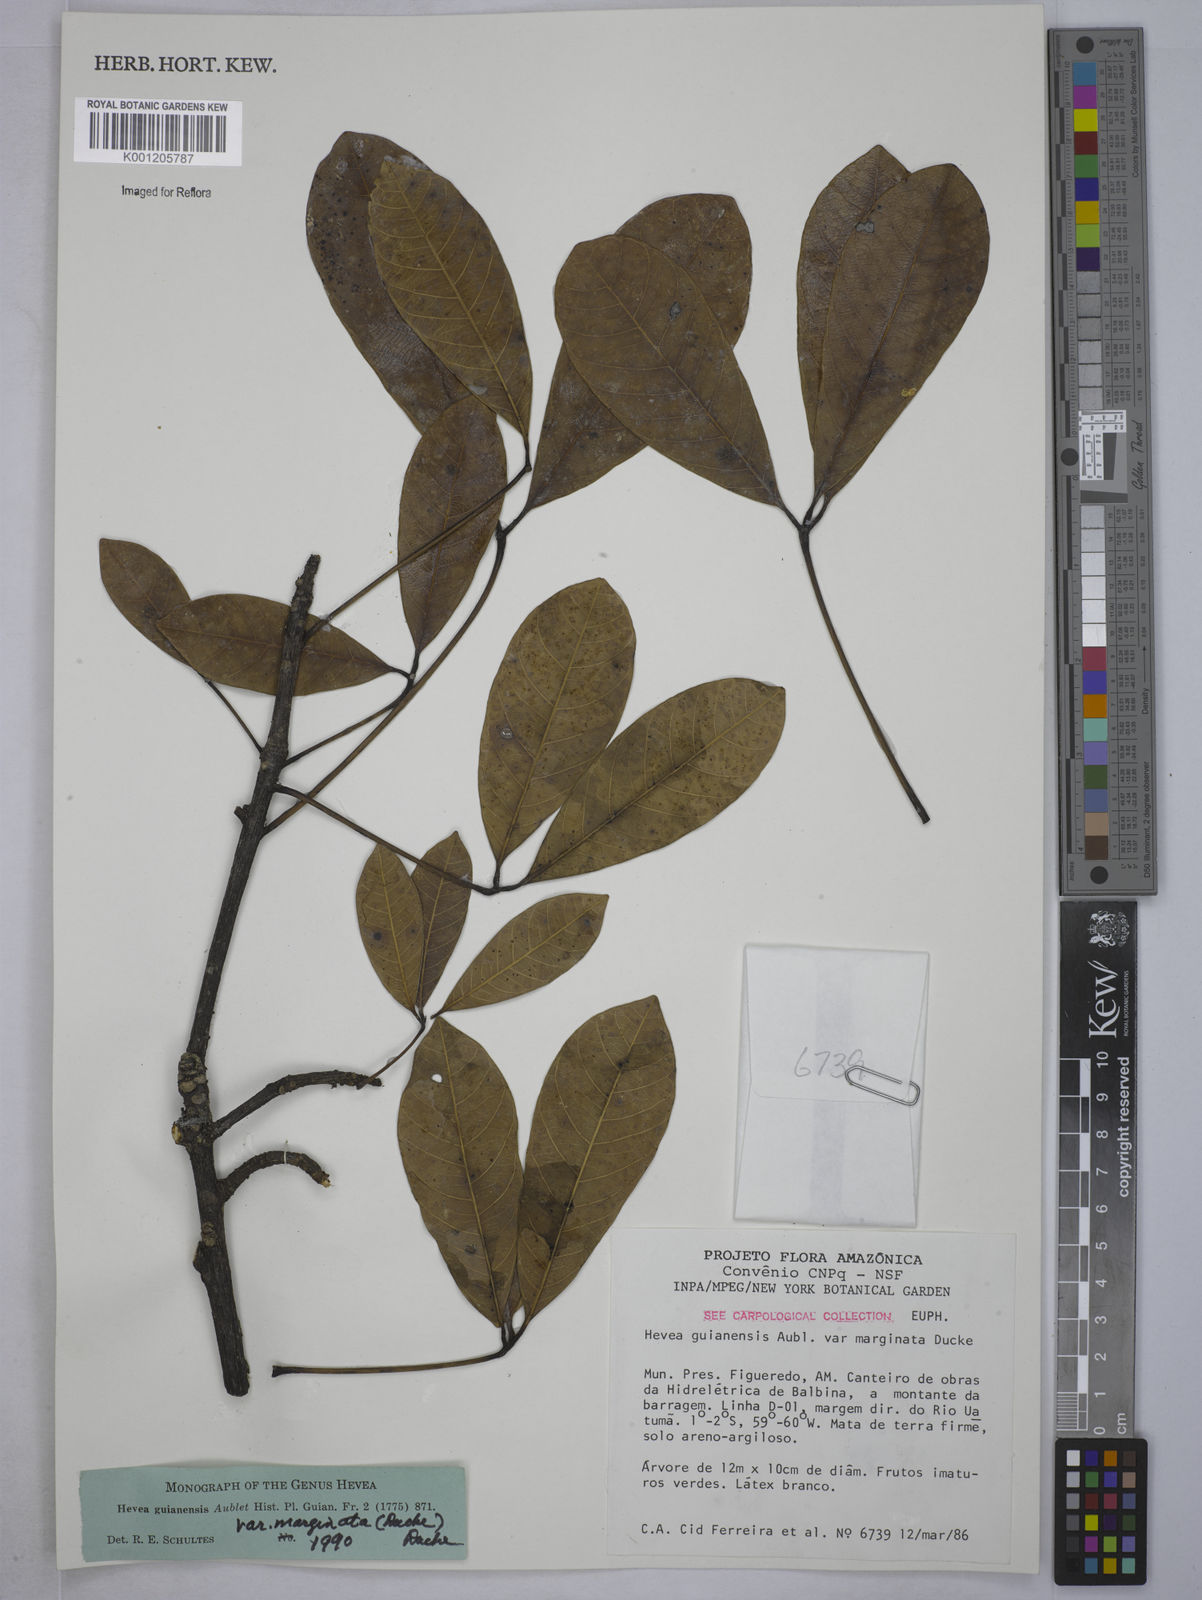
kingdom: Plantae
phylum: Tracheophyta
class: Magnoliopsida
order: Malpighiales
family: Euphorbiaceae
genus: Hevea
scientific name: Hevea guianensis
